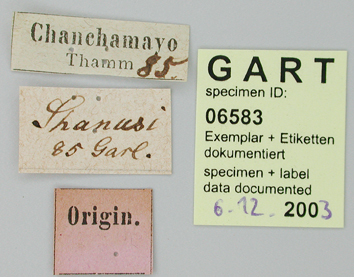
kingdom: Animalia
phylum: Arthropoda
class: Insecta
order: Lepidoptera
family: Papilionidae
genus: Papilio
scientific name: Papilio garleppi
